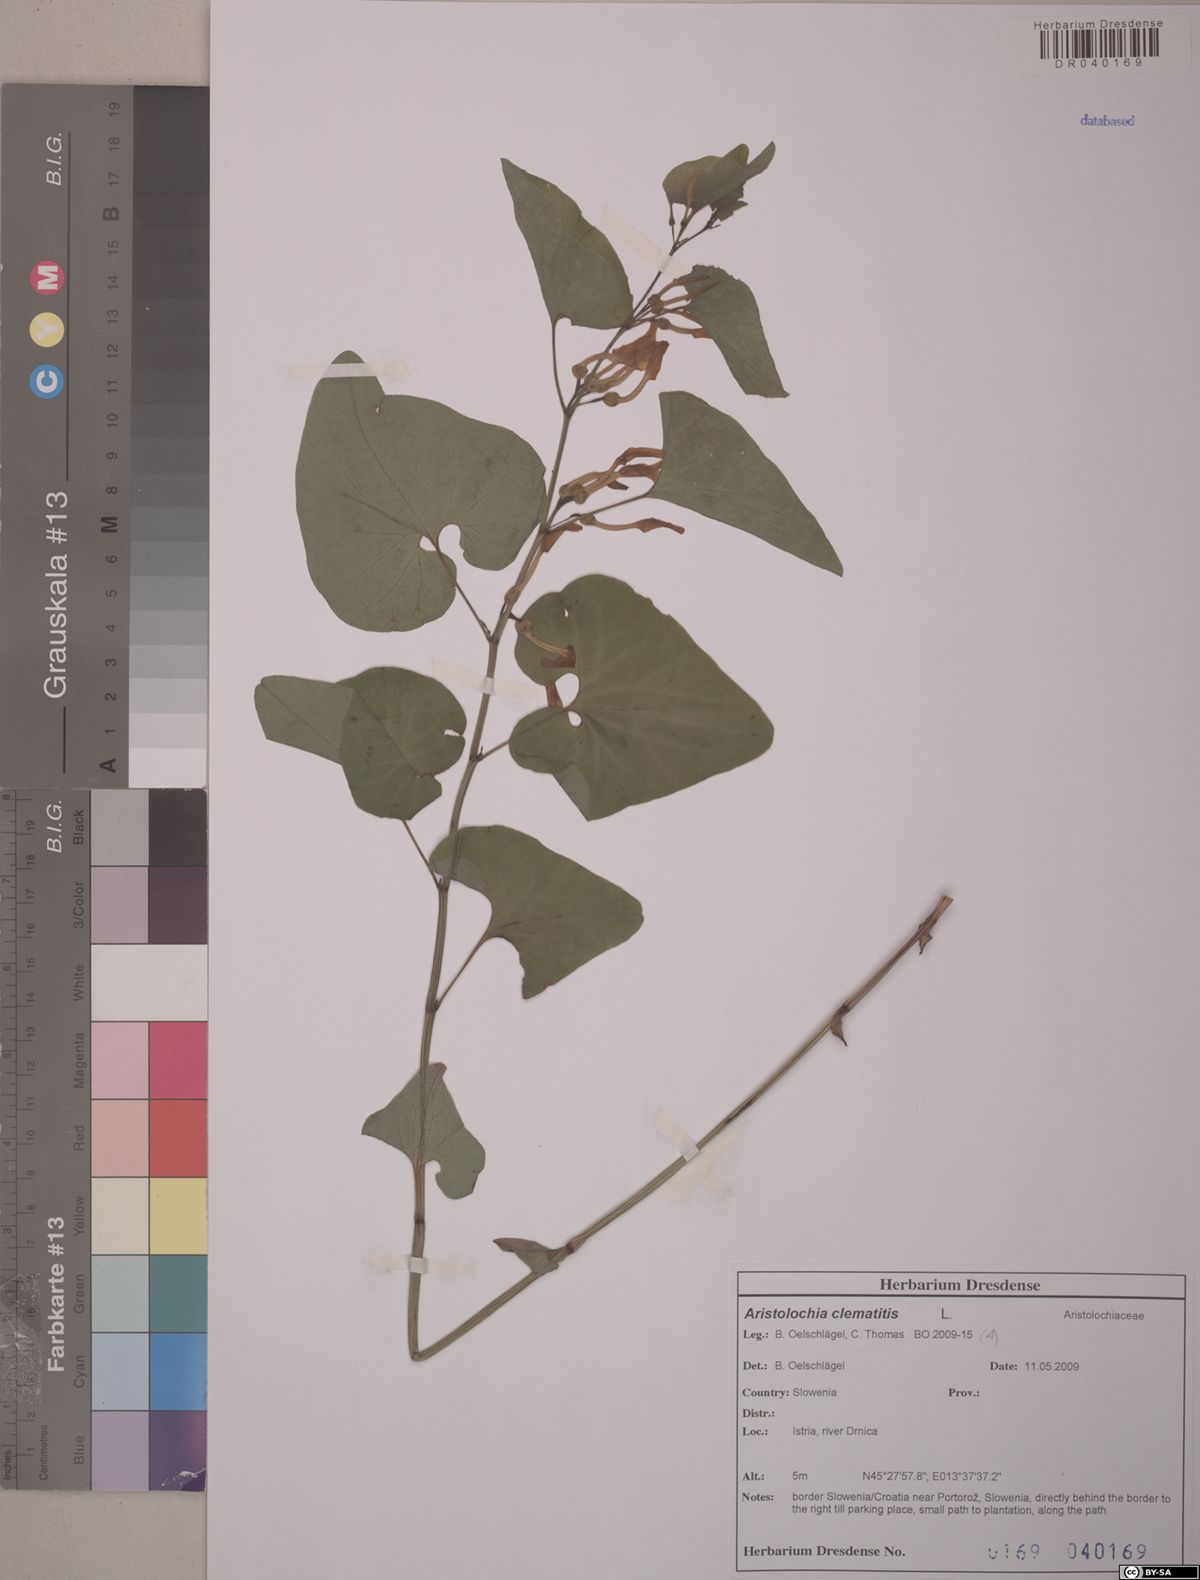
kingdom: Plantae
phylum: Tracheophyta
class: Magnoliopsida
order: Piperales
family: Aristolochiaceae
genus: Aristolochia
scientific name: Aristolochia clematitis
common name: Birthwort
